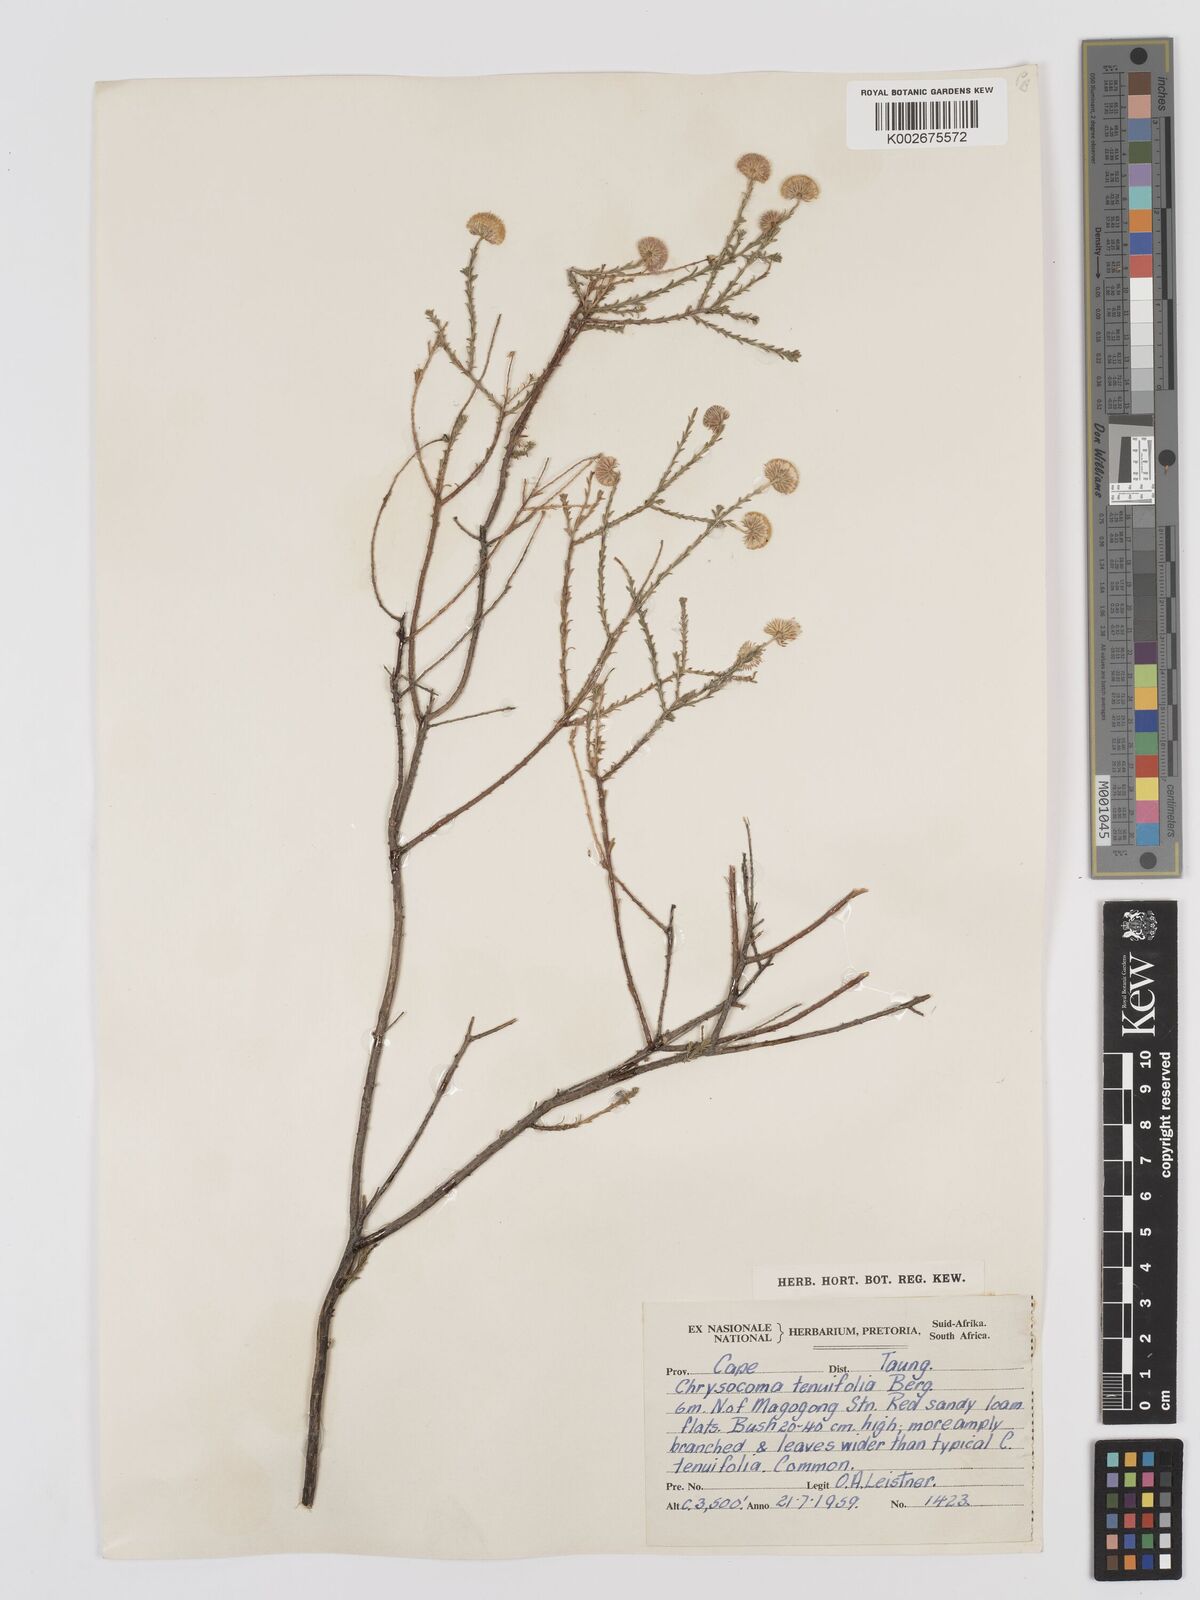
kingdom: Plantae
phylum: Tracheophyta
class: Magnoliopsida
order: Asterales
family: Asteraceae
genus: Chrysocoma
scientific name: Chrysocoma ciliata
